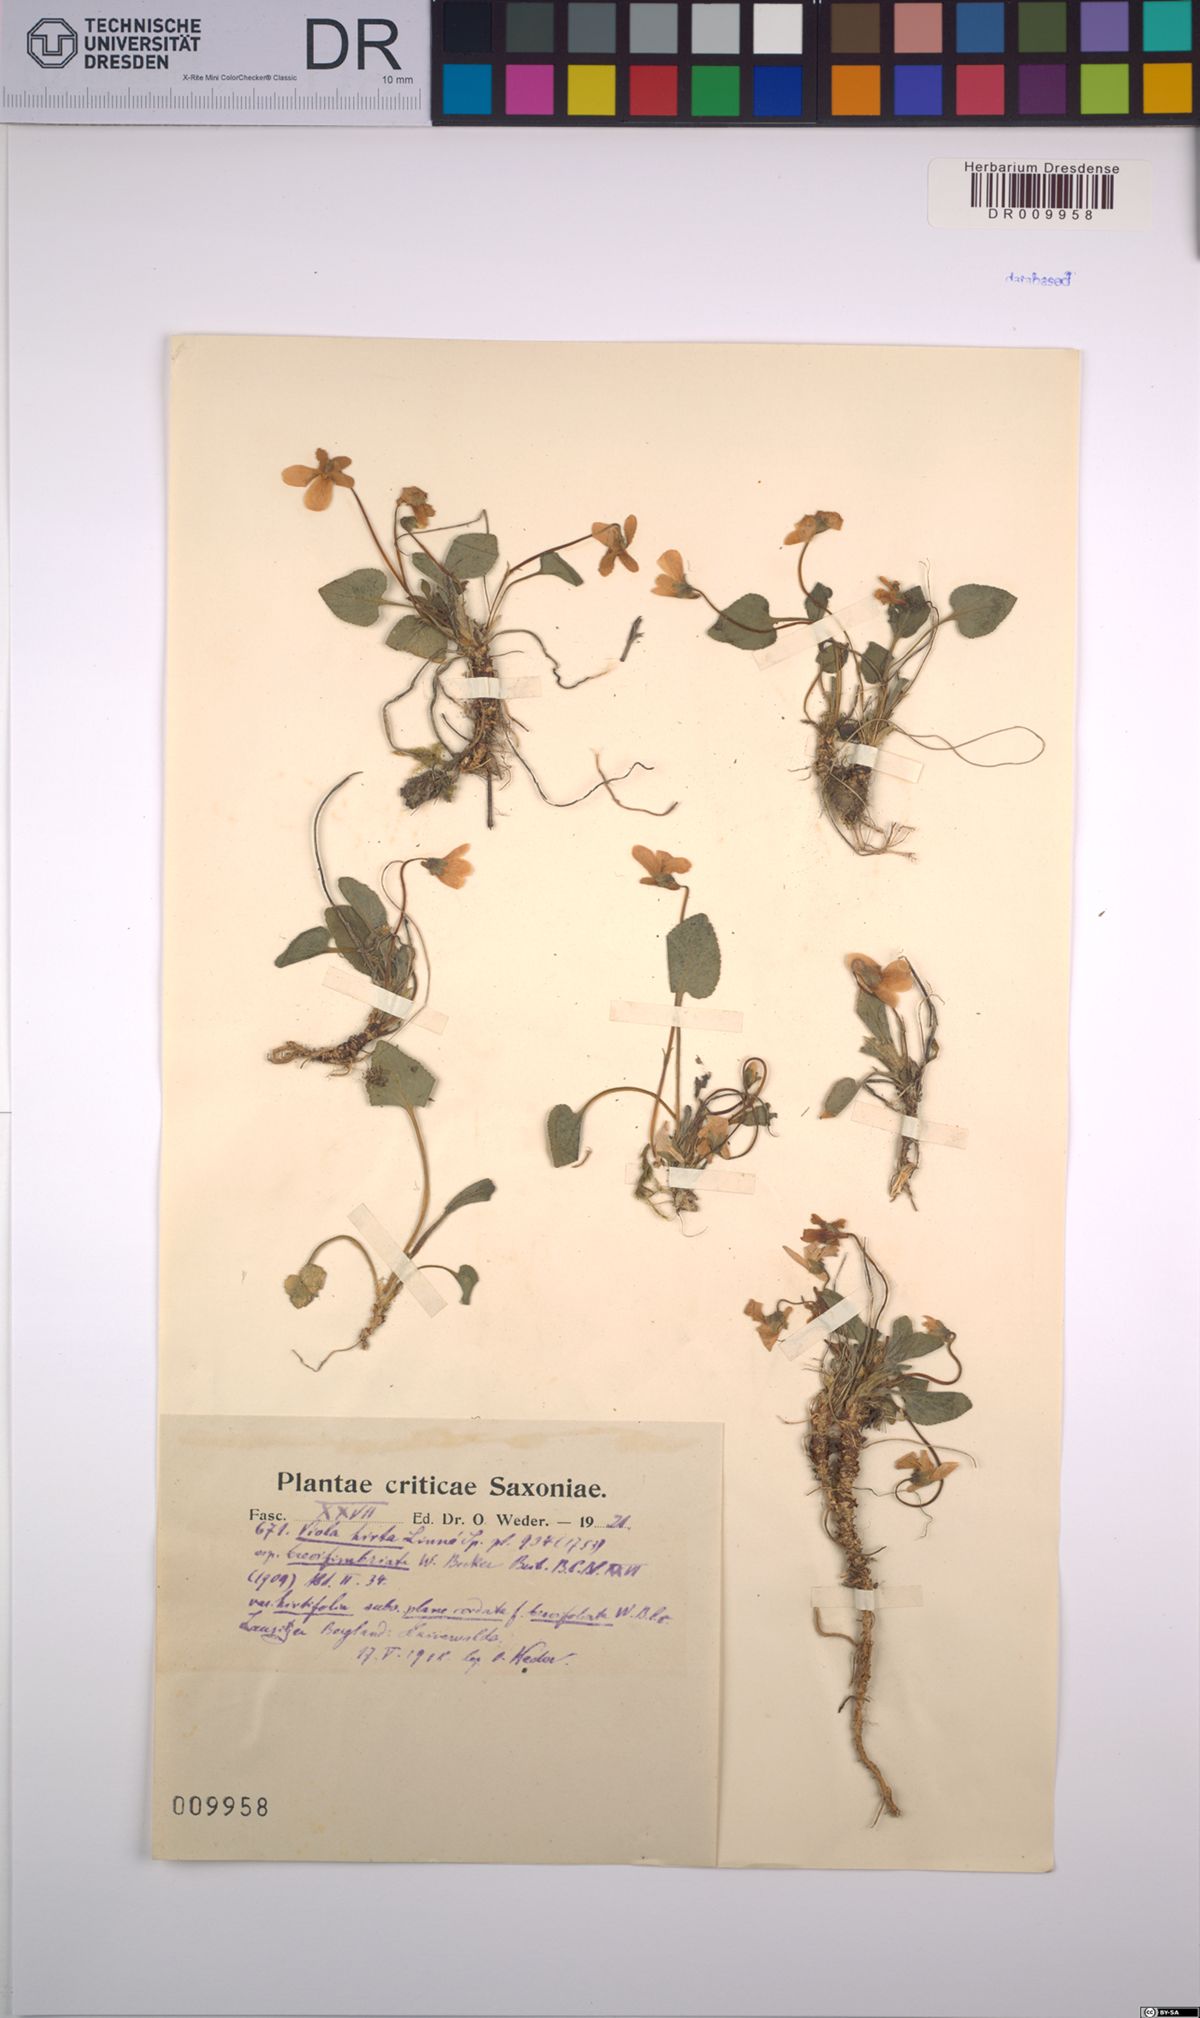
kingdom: Plantae
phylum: Tracheophyta
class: Magnoliopsida
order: Malpighiales
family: Violaceae
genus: Viola
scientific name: Viola hirta
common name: Hairy violet
